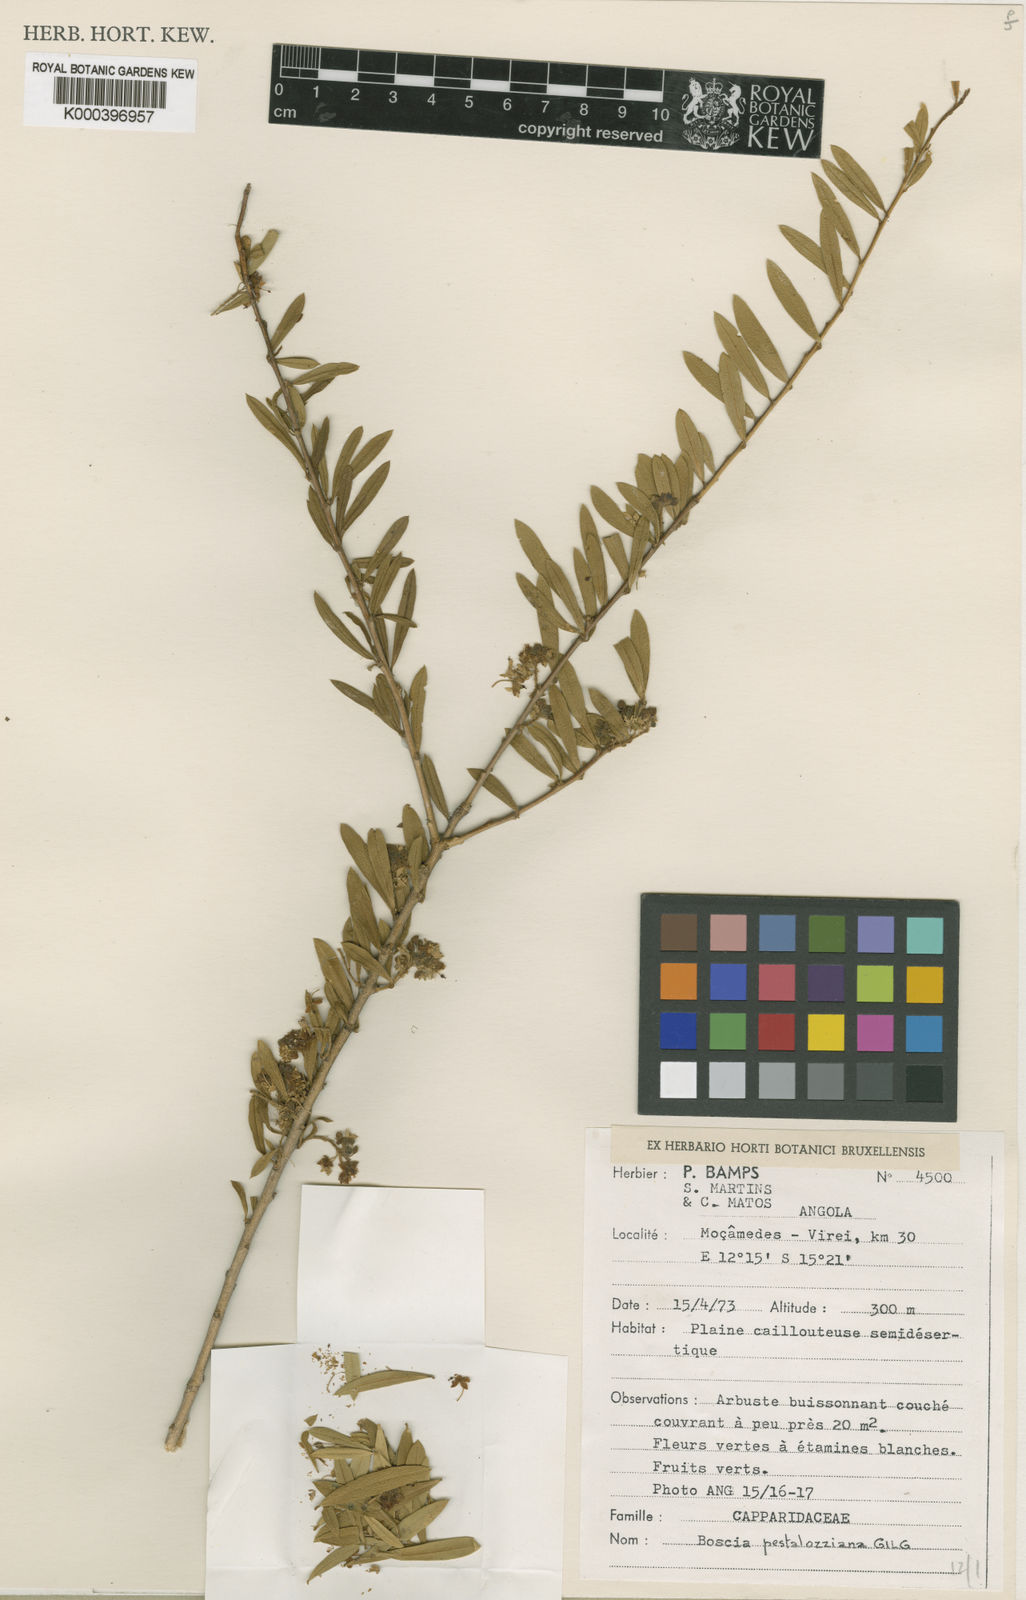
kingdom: Plantae
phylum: Tracheophyta
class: Magnoliopsida
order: Brassicales
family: Capparaceae
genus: Boscia
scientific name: Boscia pestalozziana
